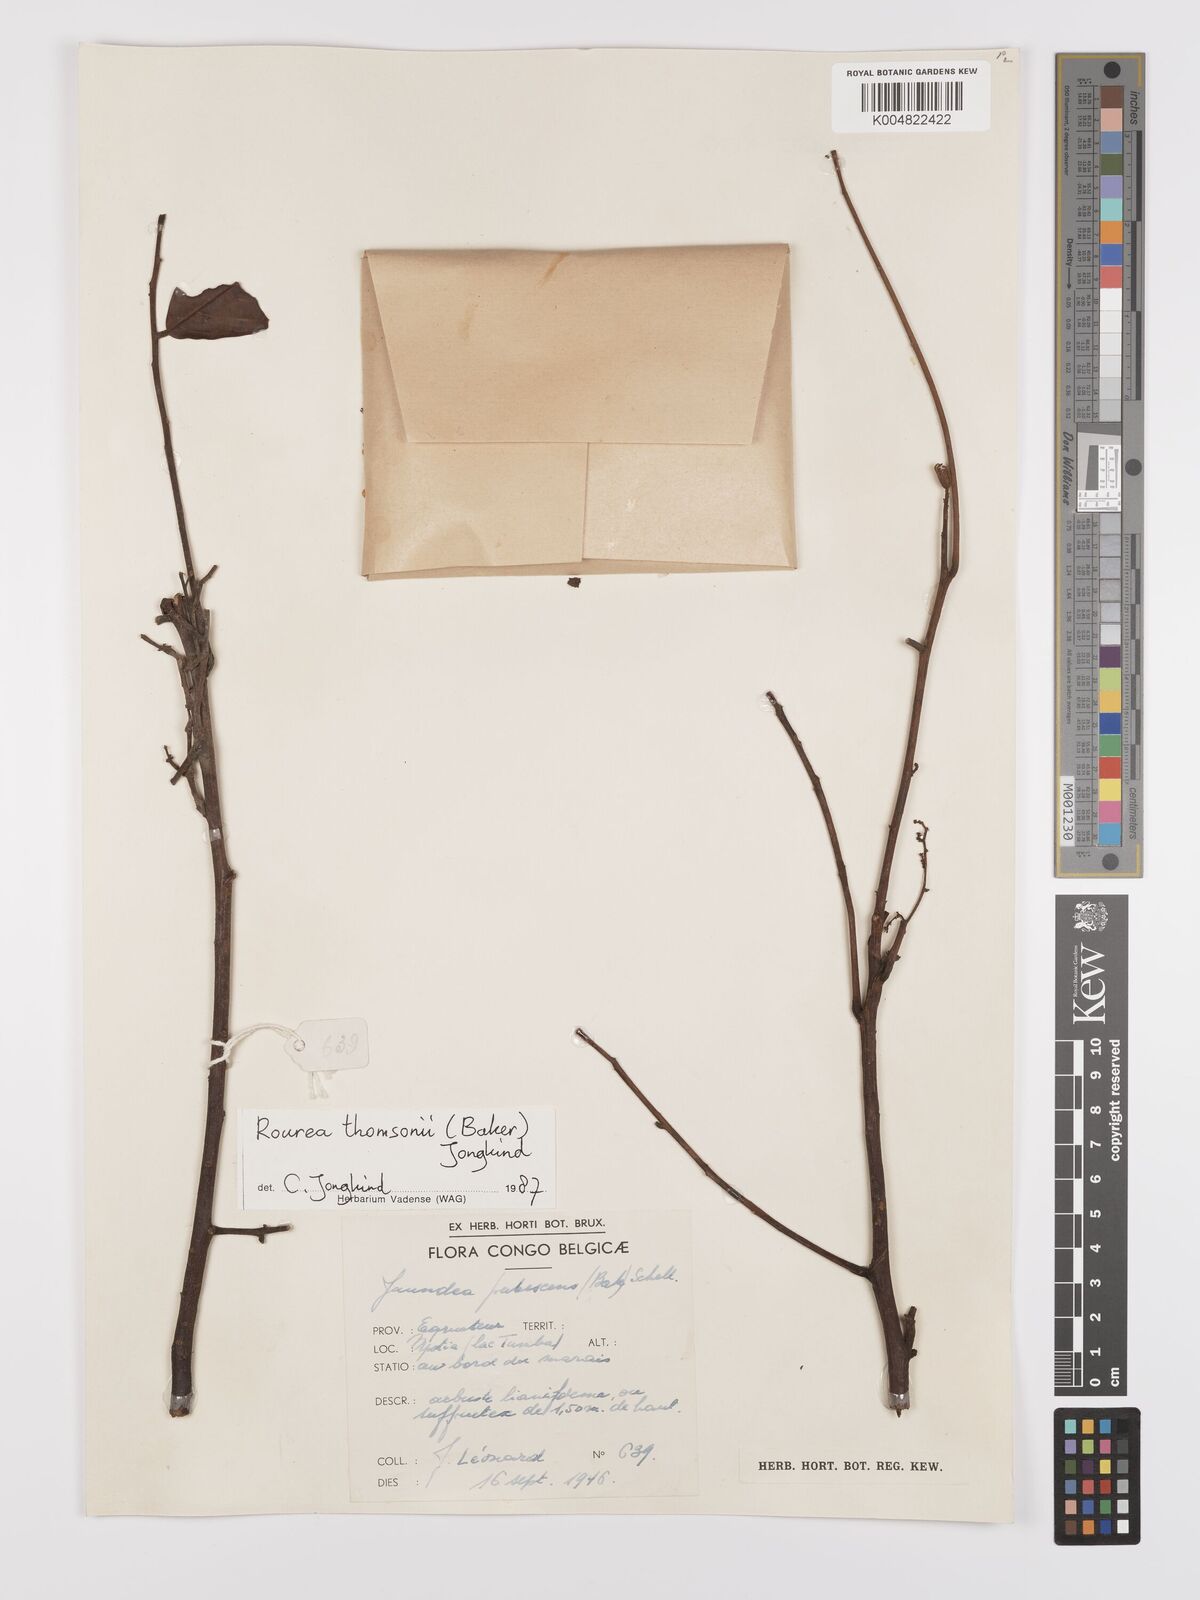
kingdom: Plantae
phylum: Tracheophyta
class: Magnoliopsida
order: Oxalidales
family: Connaraceae
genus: Rourea
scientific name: Rourea pubescens
